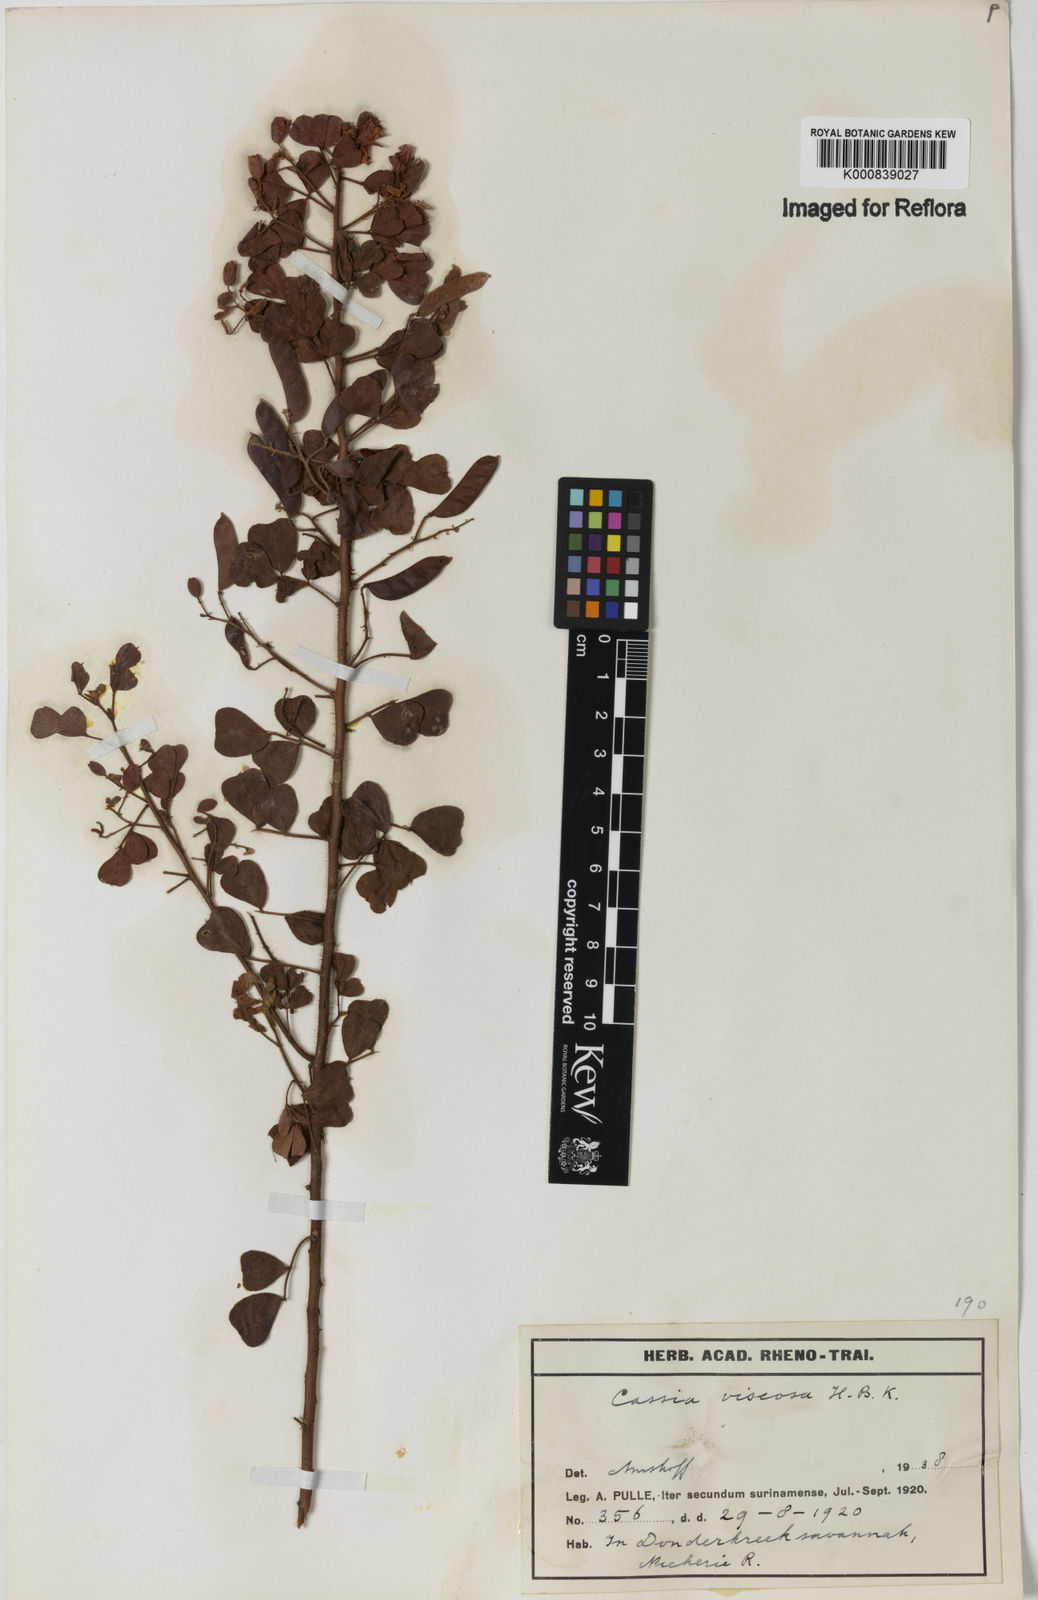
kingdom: Plantae
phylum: Tracheophyta
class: Magnoliopsida
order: Fabales
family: Fabaceae
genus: Chamaecrista
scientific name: Chamaecrista viscosa
